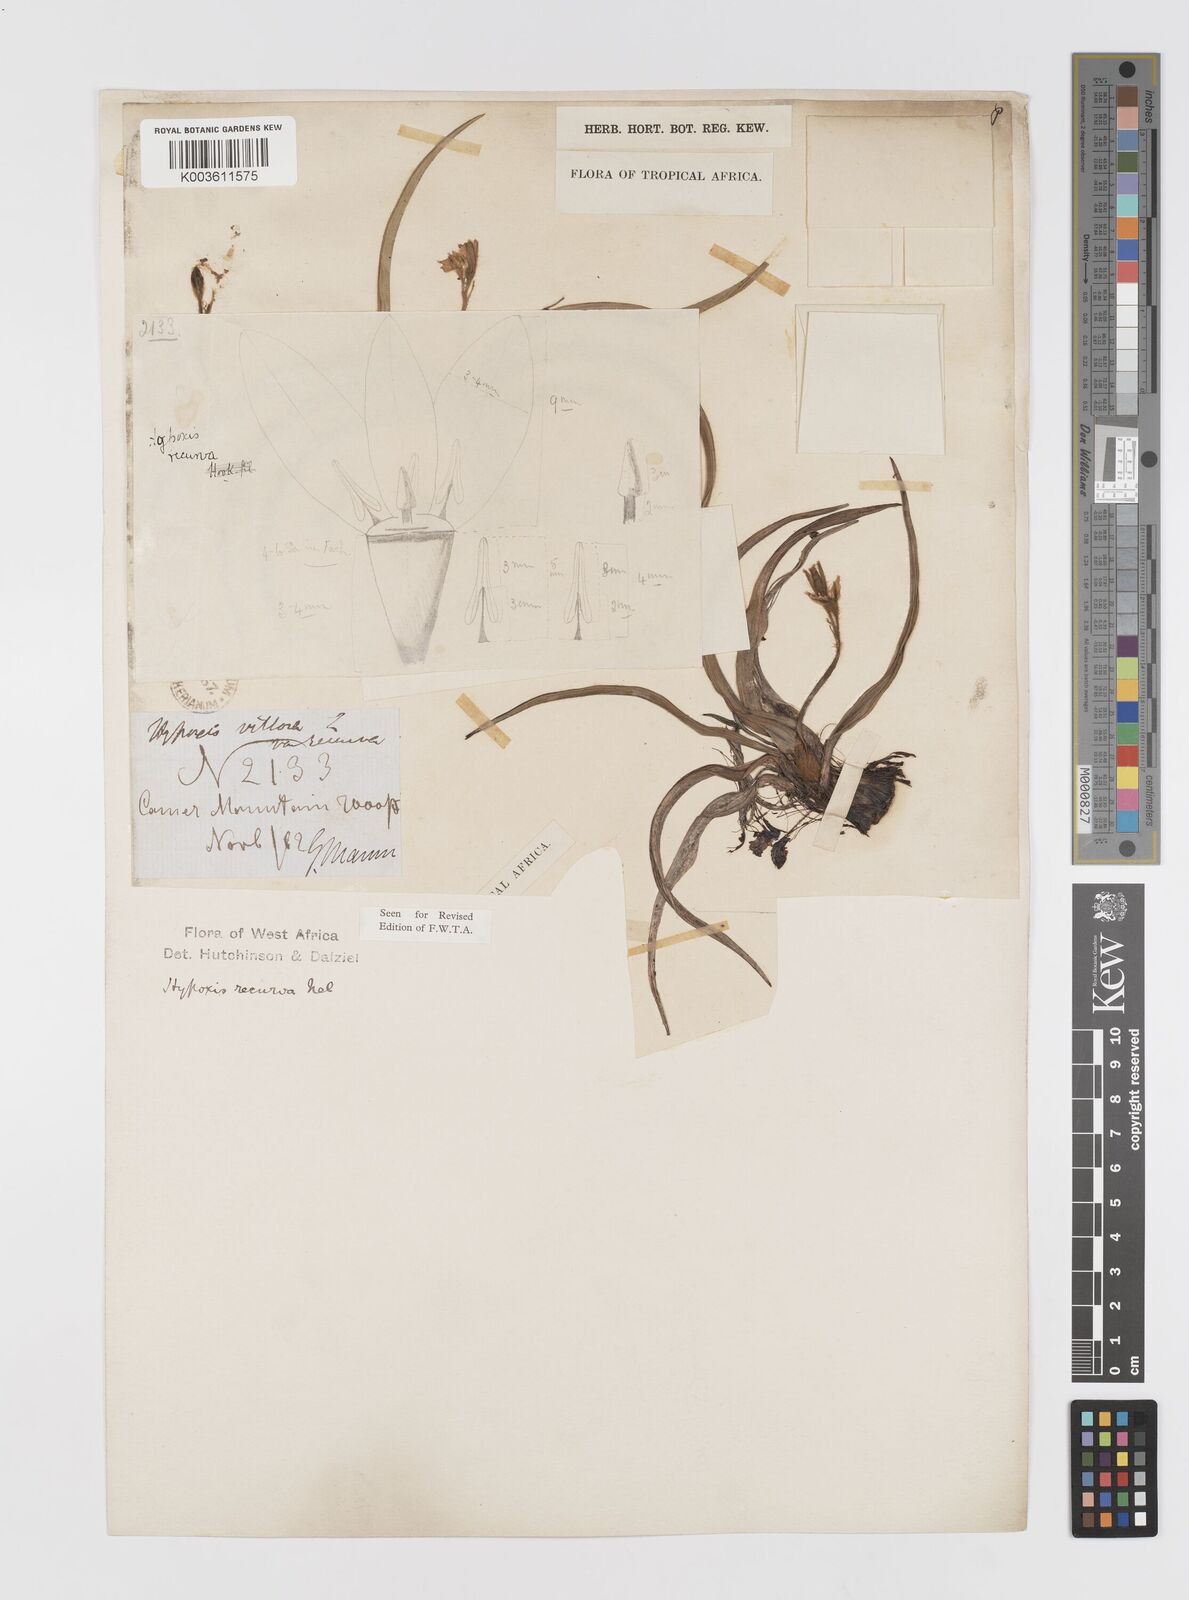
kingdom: Plantae
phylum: Tracheophyta
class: Liliopsida
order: Asparagales
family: Hypoxidaceae
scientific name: Hypoxidaceae
